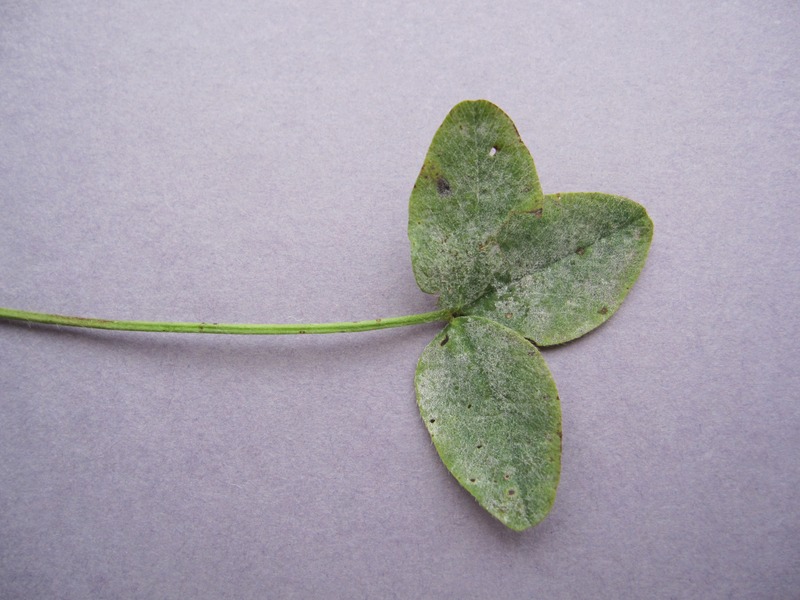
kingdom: Fungi
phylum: Ascomycota
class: Leotiomycetes
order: Helotiales
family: Erysiphaceae
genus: Erysiphe
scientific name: Erysiphe pisi
